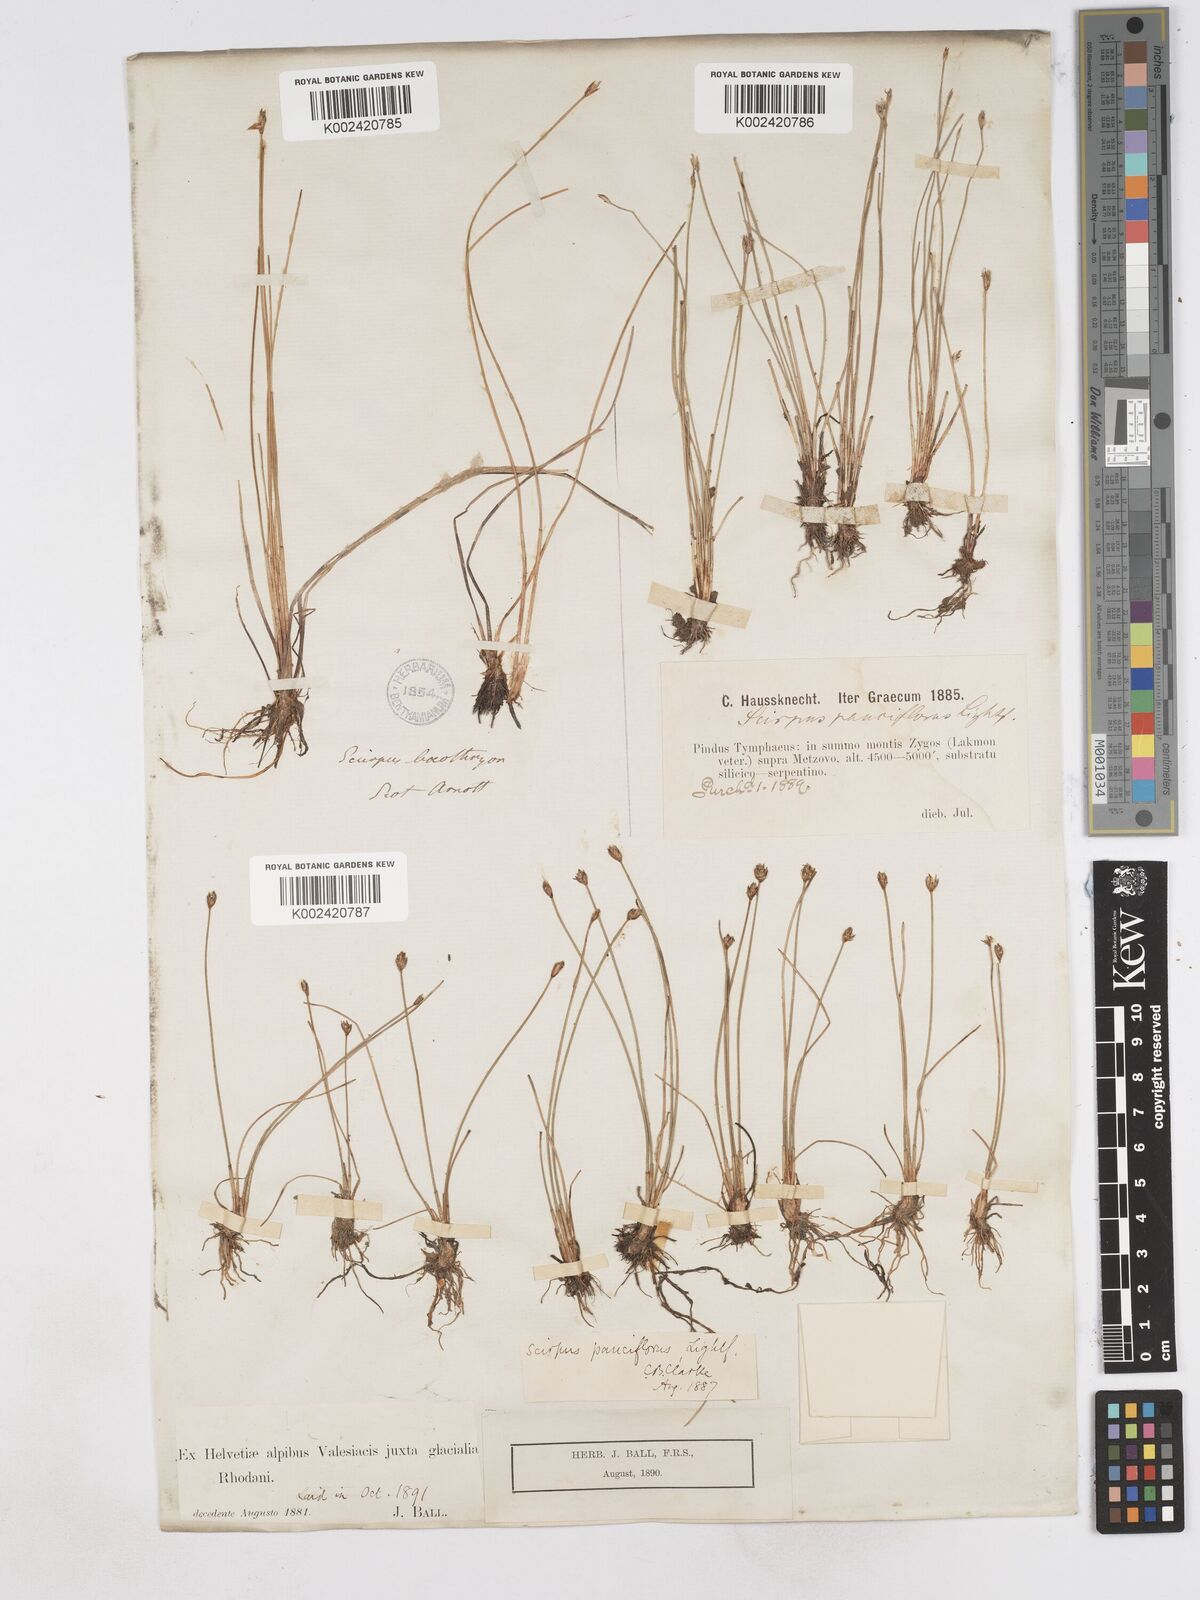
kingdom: Plantae
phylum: Tracheophyta
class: Liliopsida
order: Poales
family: Cyperaceae
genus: Eleocharis
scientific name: Eleocharis quinqueflora
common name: Few-flowered spike-rush
